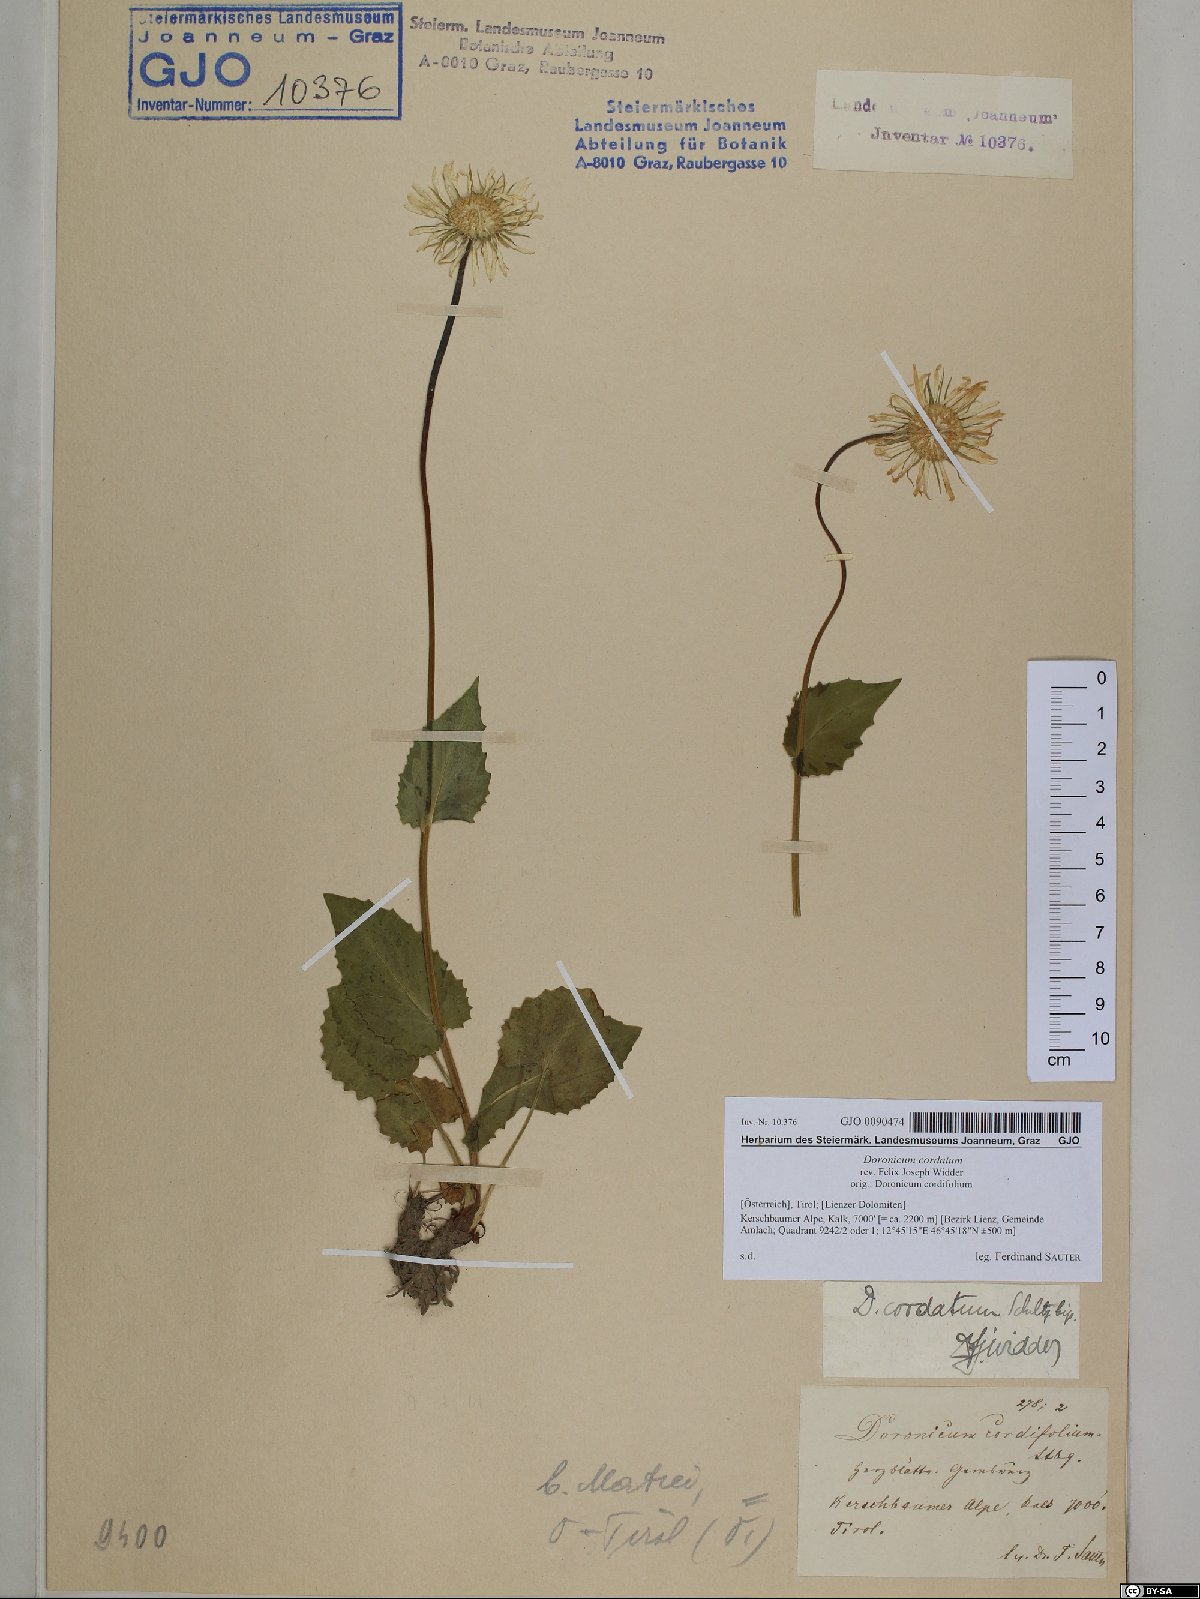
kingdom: Plantae
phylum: Tracheophyta
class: Magnoliopsida
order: Asterales
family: Asteraceae
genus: Doronicum
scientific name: Doronicum columnae
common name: Eastern leopard's-bane
